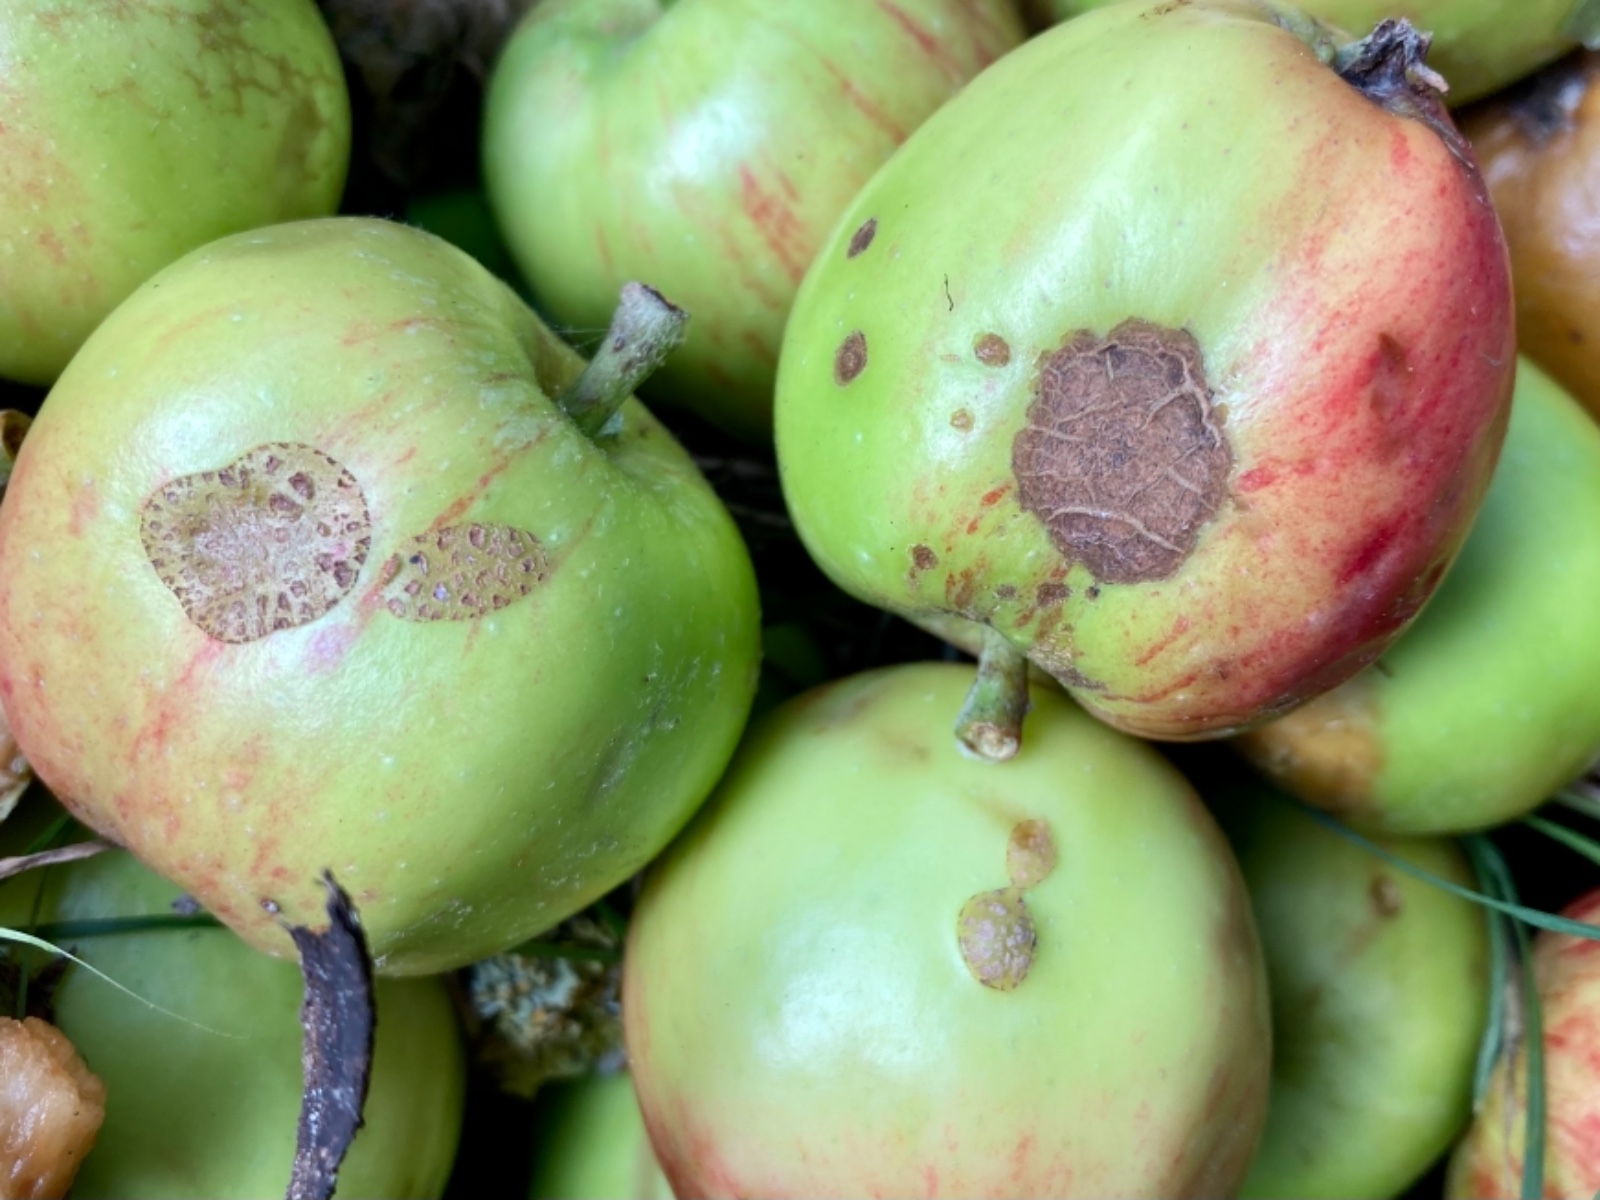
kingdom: Fungi
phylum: Ascomycota
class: Dothideomycetes
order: Venturiales
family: Venturiaceae
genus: Venturia
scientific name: Venturia inaequalis
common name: Apple scab
